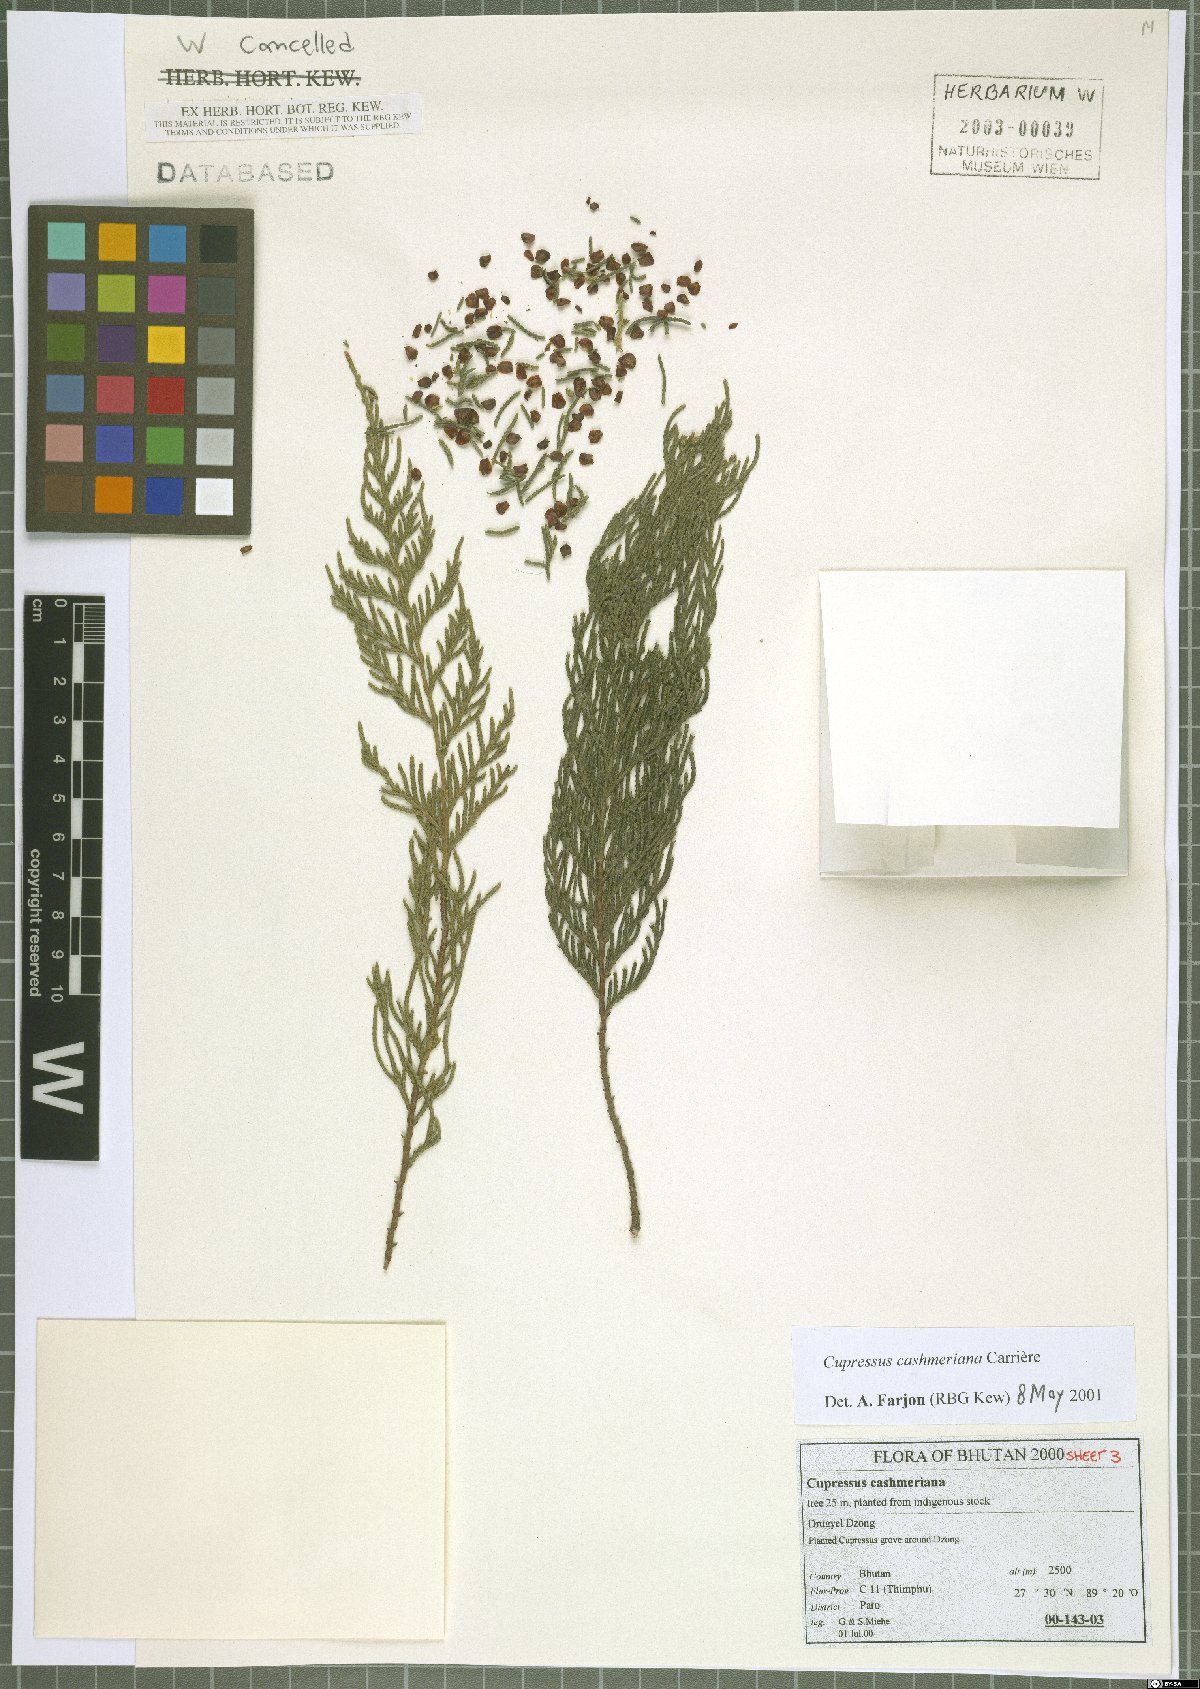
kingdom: Plantae
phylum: Tracheophyta
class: Pinopsida
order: Pinales
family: Cupressaceae
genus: Cupressus
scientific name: Cupressus cashmeriana
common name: Bhutan cypress
